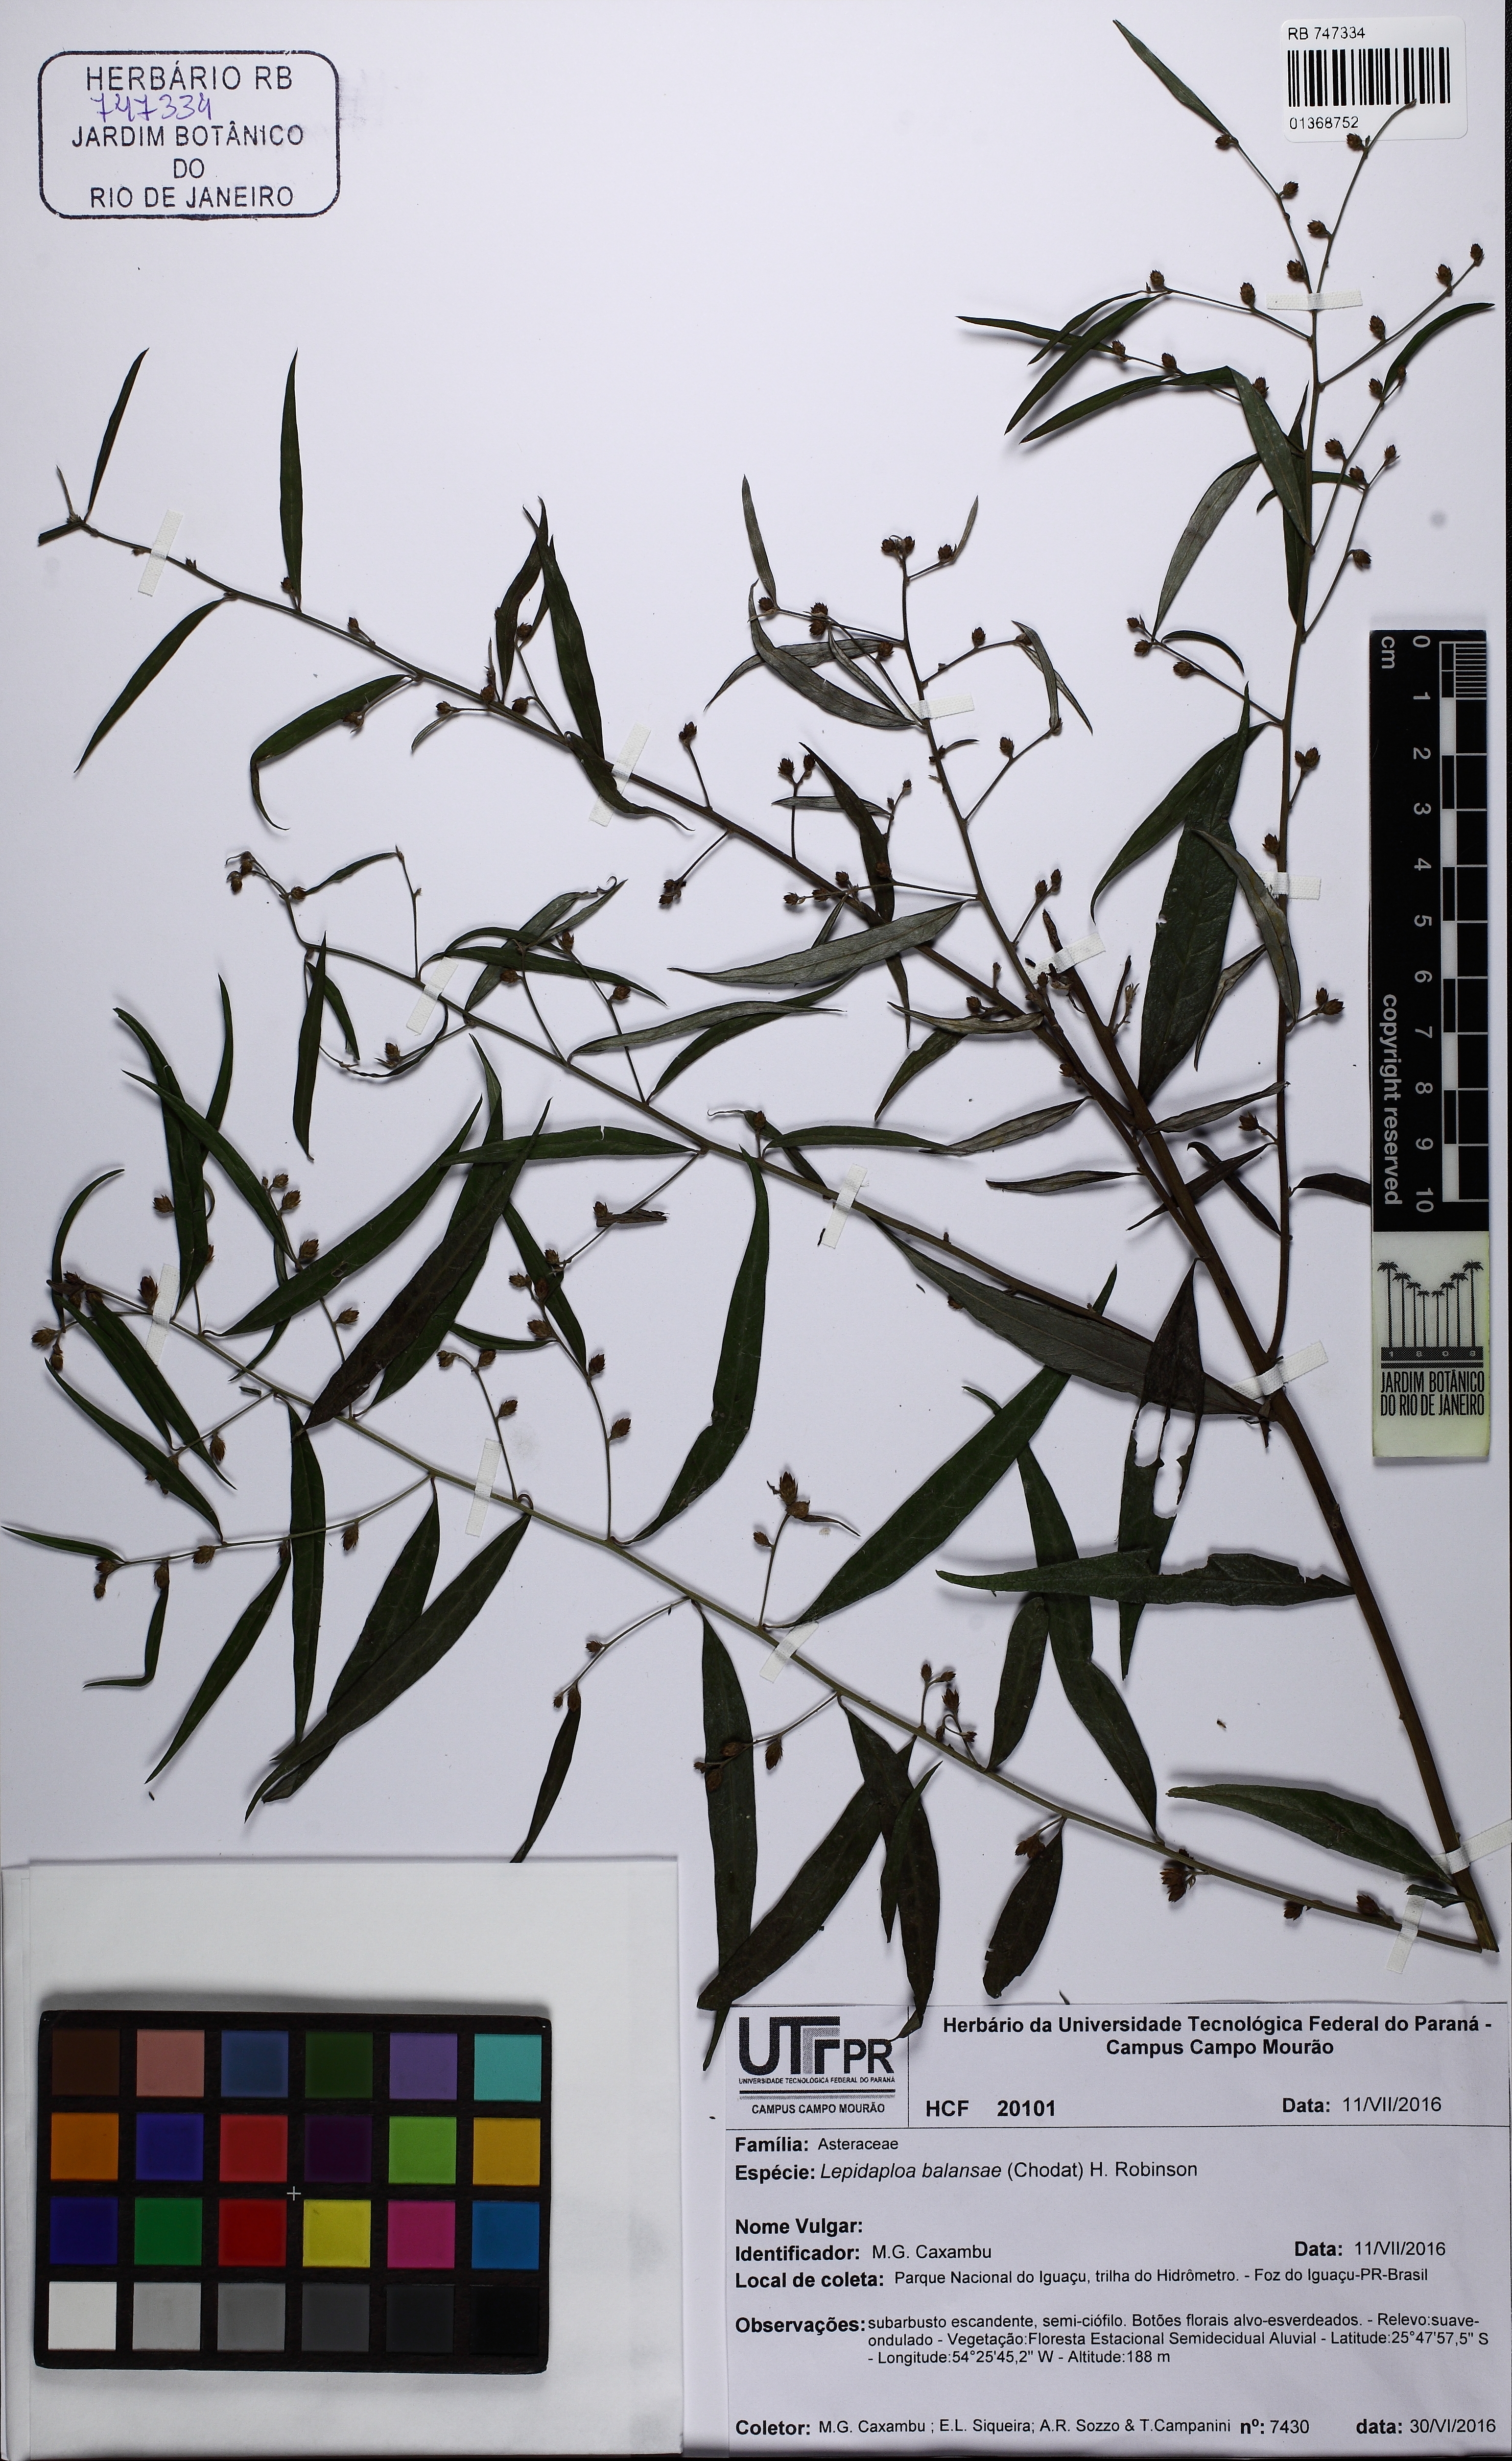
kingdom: Plantae
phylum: Tracheophyta
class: Magnoliopsida
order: Asterales
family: Asteraceae
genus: Lepidaploa
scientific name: Lepidaploa balansae
